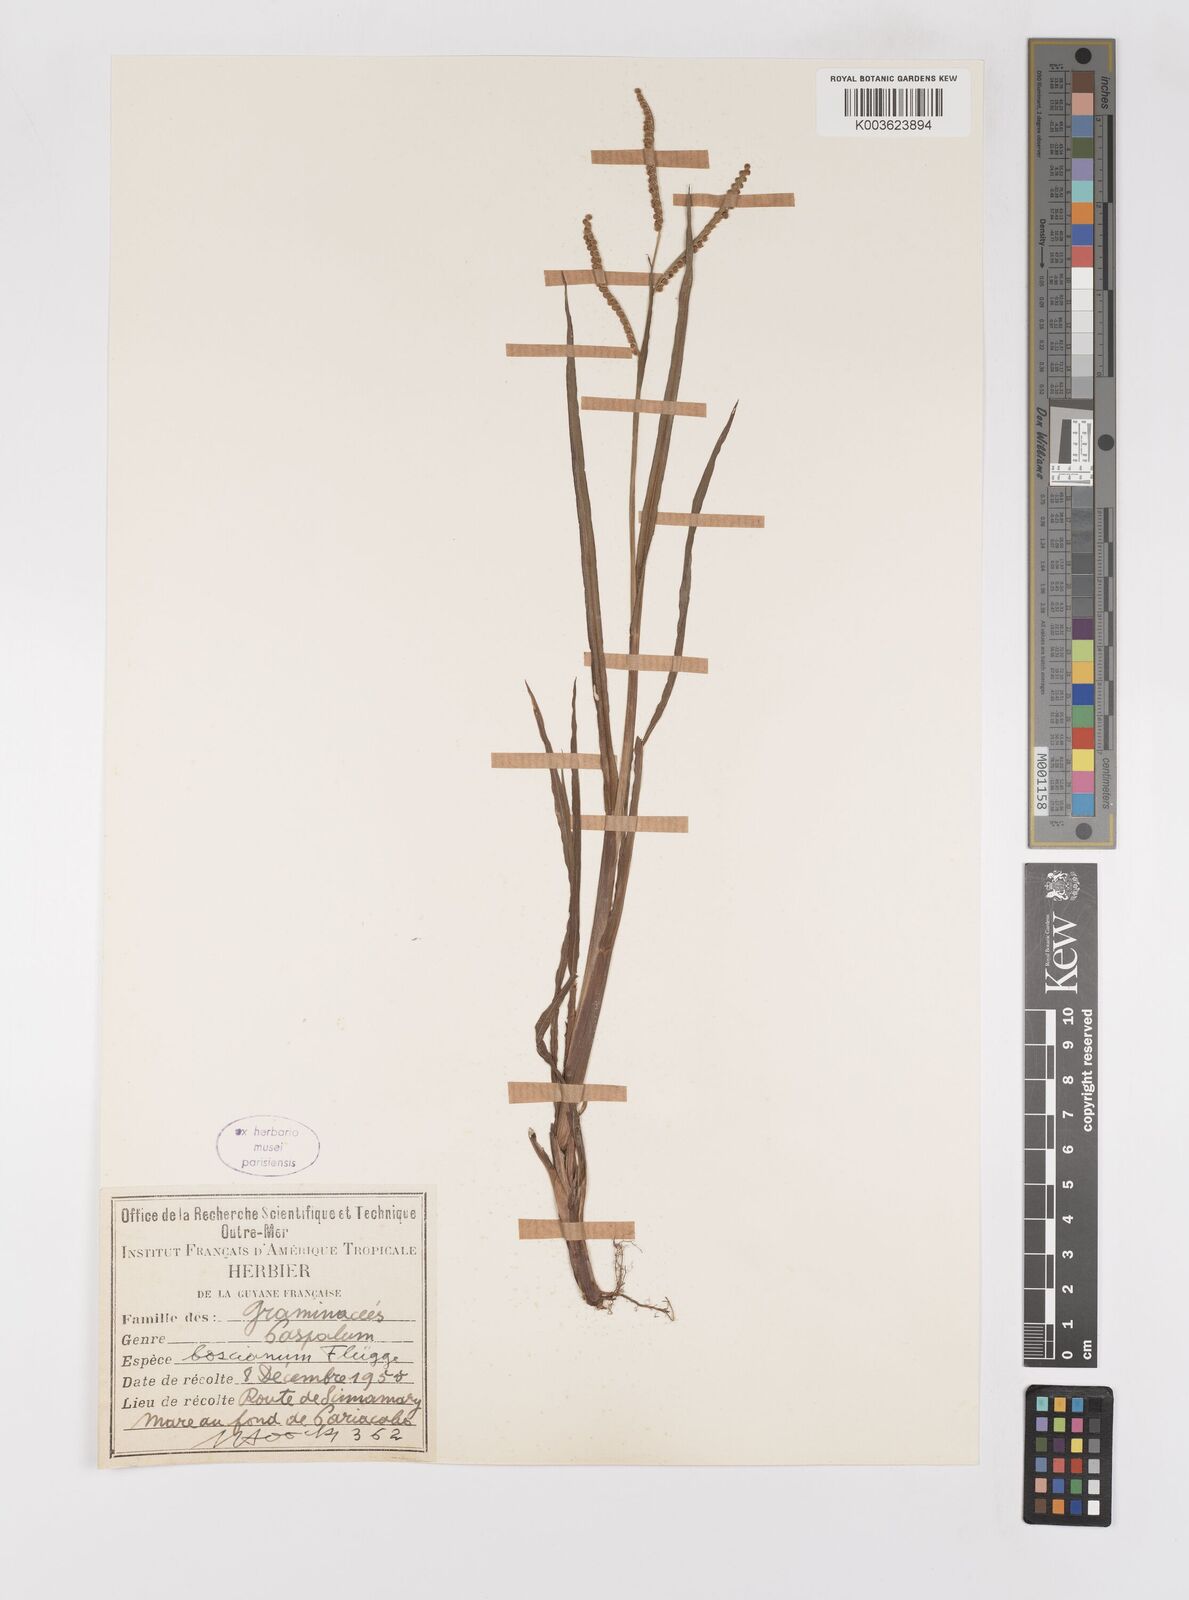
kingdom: Plantae
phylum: Tracheophyta
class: Liliopsida
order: Poales
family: Poaceae
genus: Paspalum
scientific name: Paspalum scrobiculatum
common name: Kodo millet
